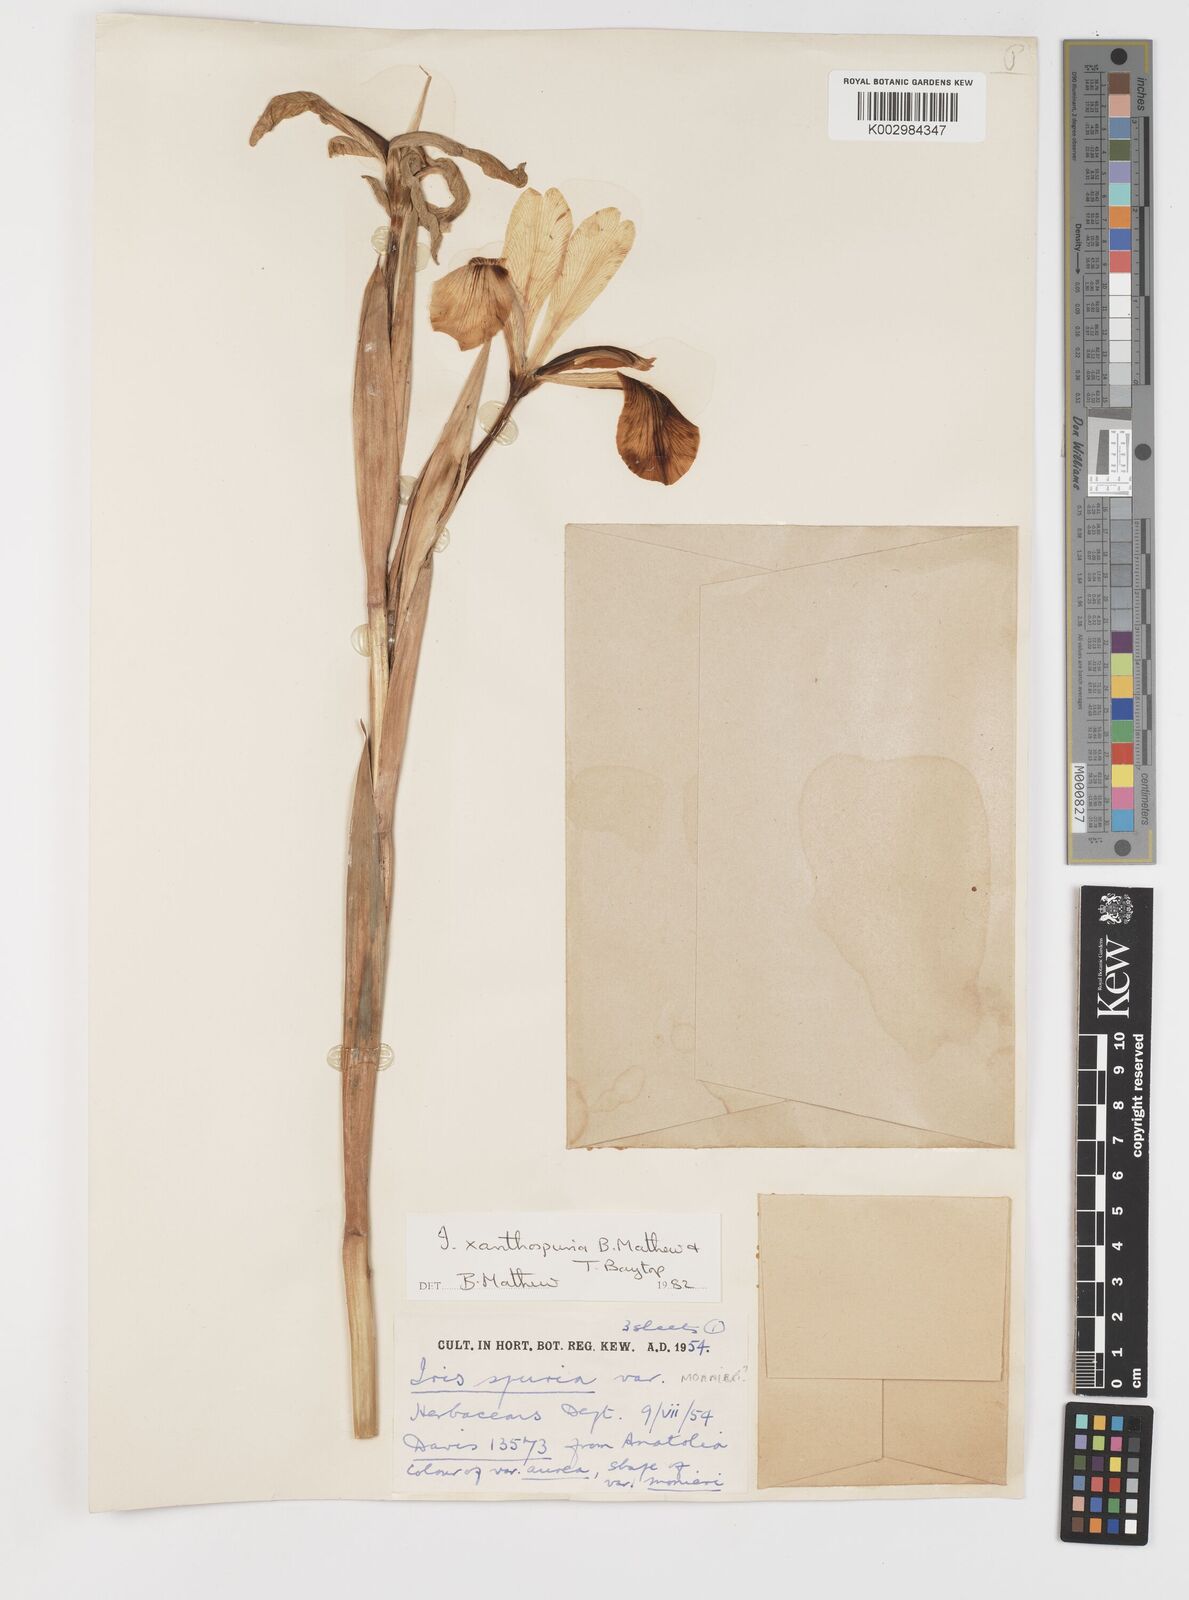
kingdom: Plantae
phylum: Tracheophyta
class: Liliopsida
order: Asparagales
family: Iridaceae
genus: Iris
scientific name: Iris spuria
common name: Blue iris
